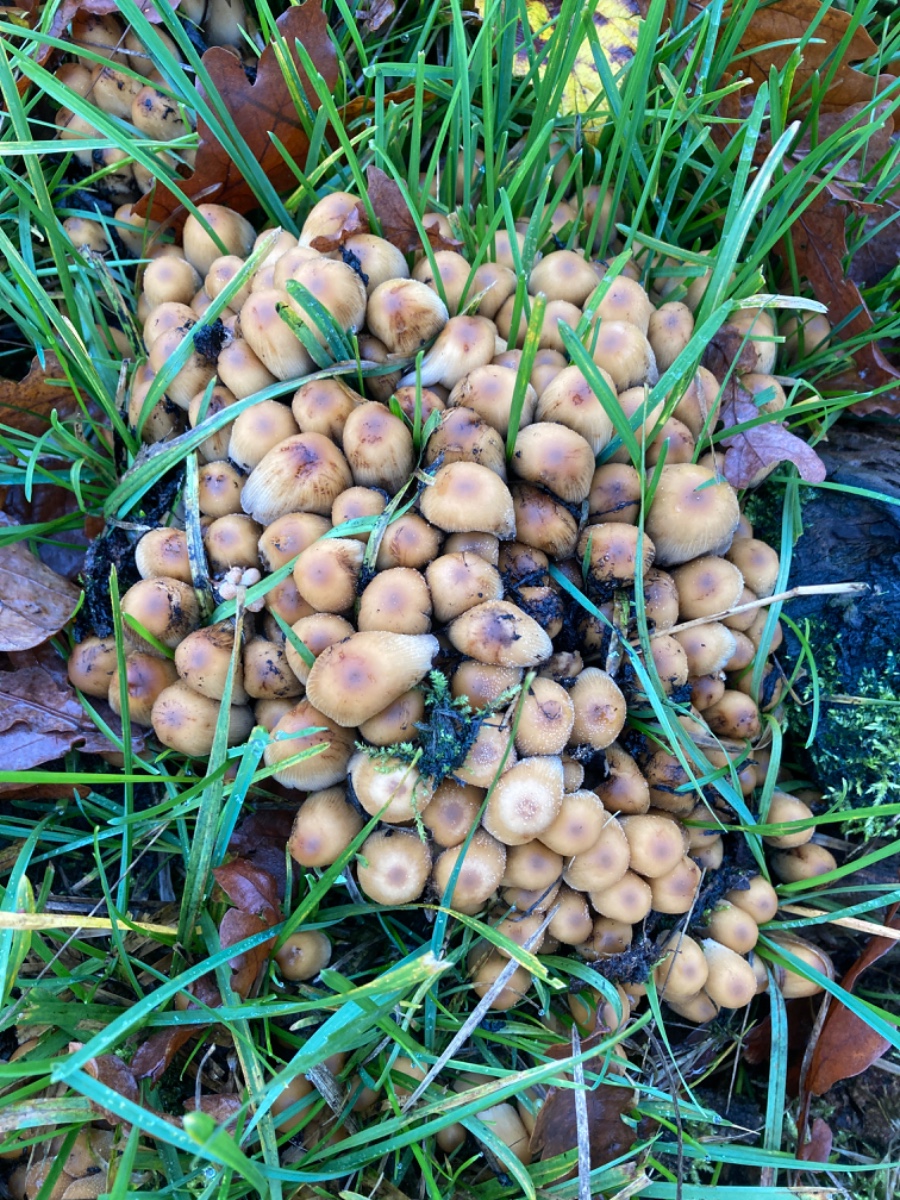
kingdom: Fungi
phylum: Basidiomycota
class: Agaricomycetes
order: Agaricales
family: Psathyrellaceae
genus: Coprinellus
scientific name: Coprinellus
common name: blækhat
